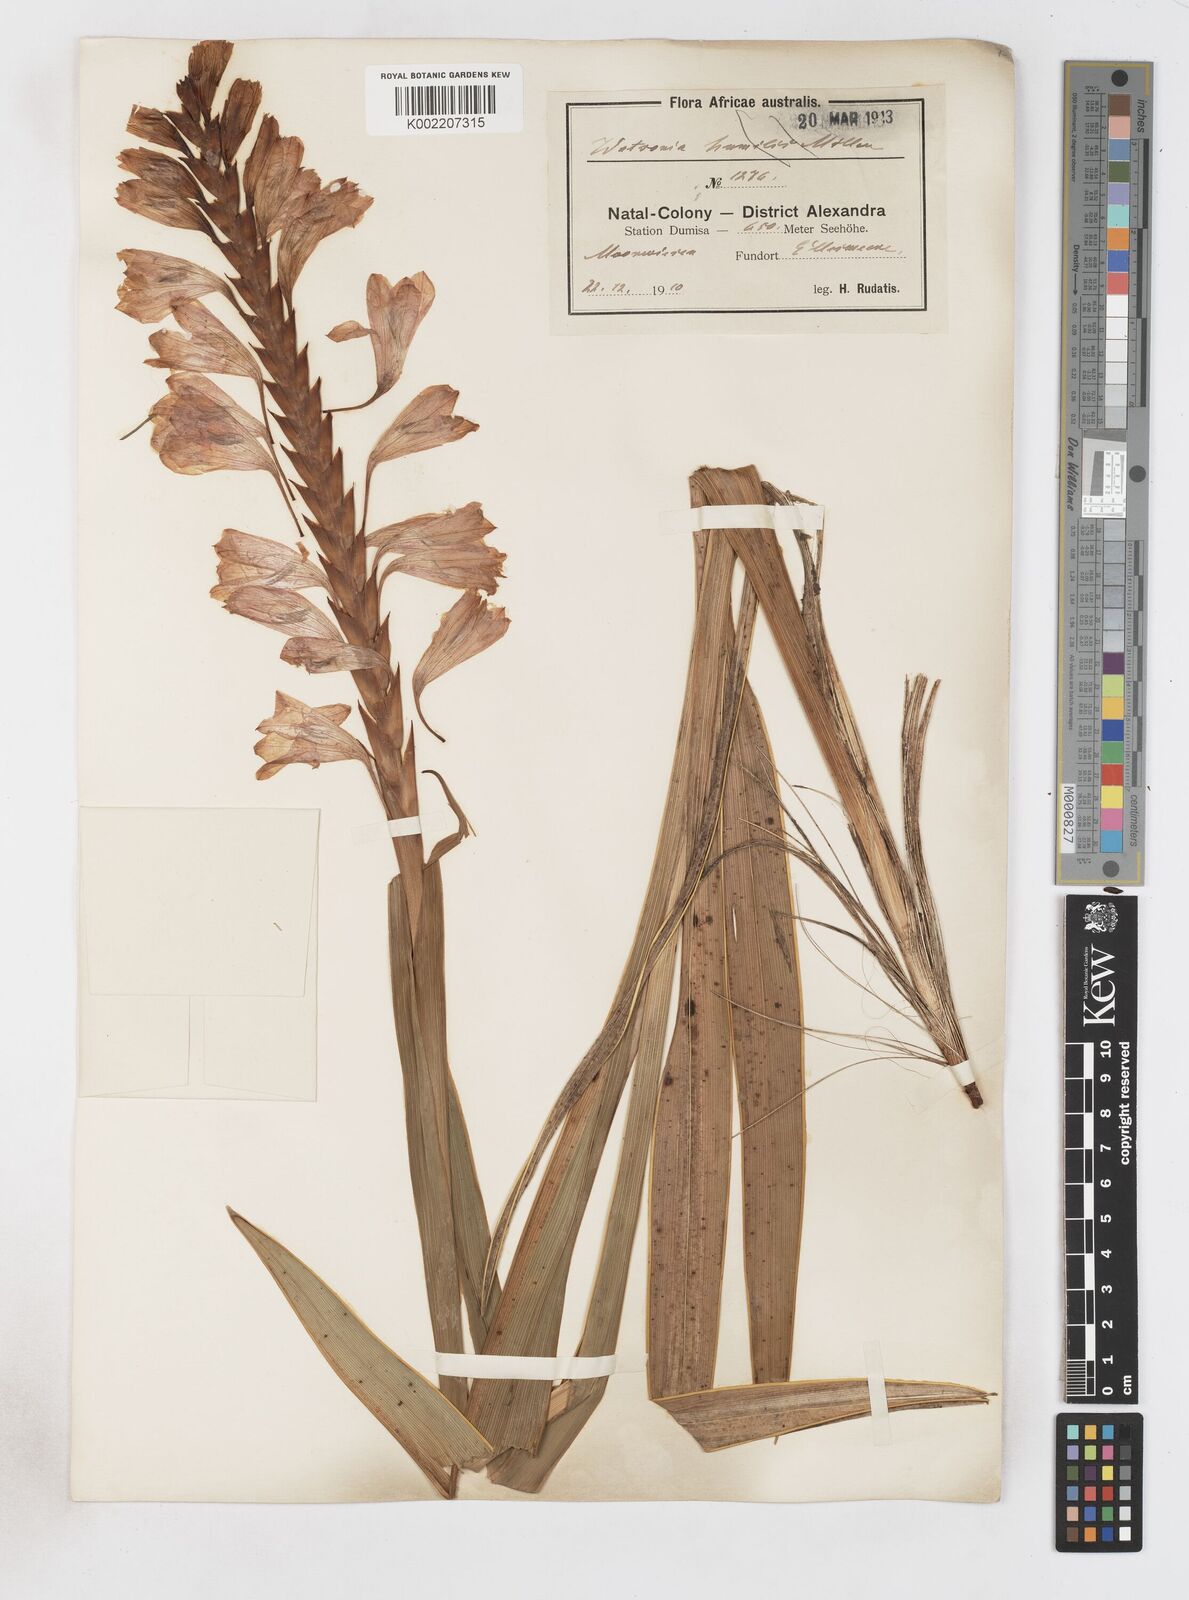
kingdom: Plantae
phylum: Tracheophyta
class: Liliopsida
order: Asparagales
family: Iridaceae
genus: Watsonia
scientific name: Watsonia densiflora
